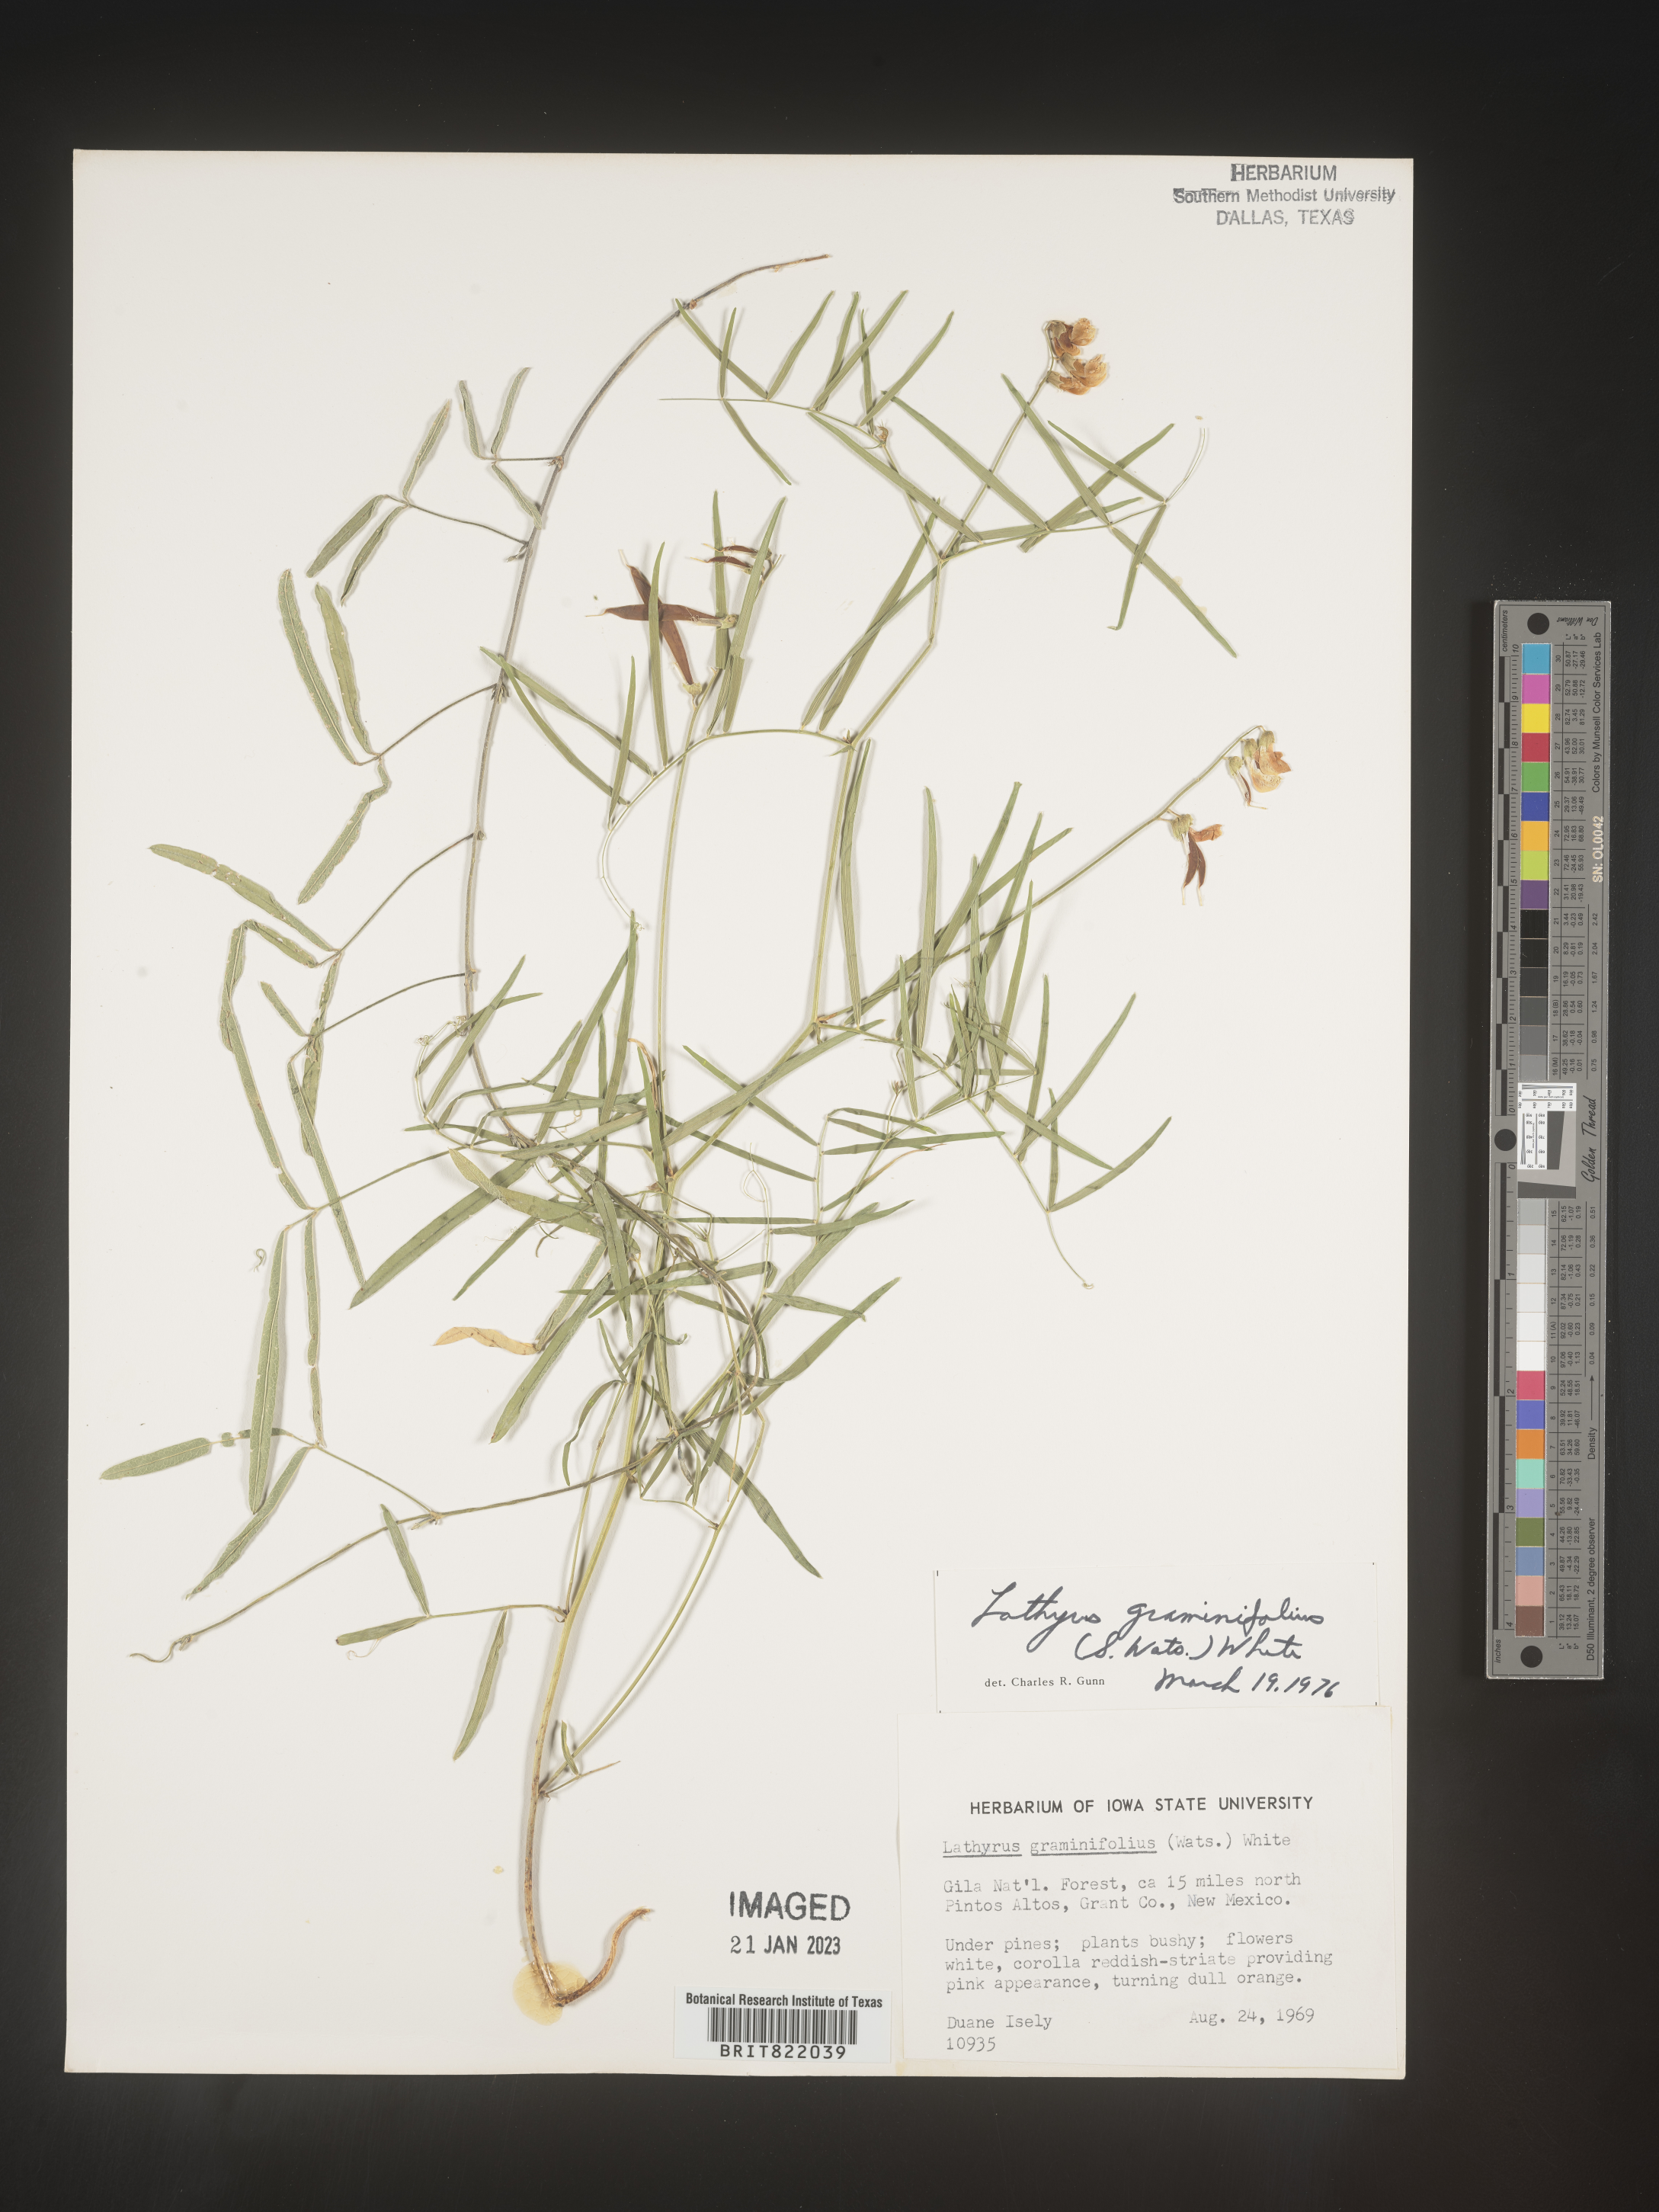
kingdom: Plantae
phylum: Tracheophyta
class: Magnoliopsida
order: Fabales
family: Fabaceae
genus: Lathyrus
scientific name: Lathyrus
